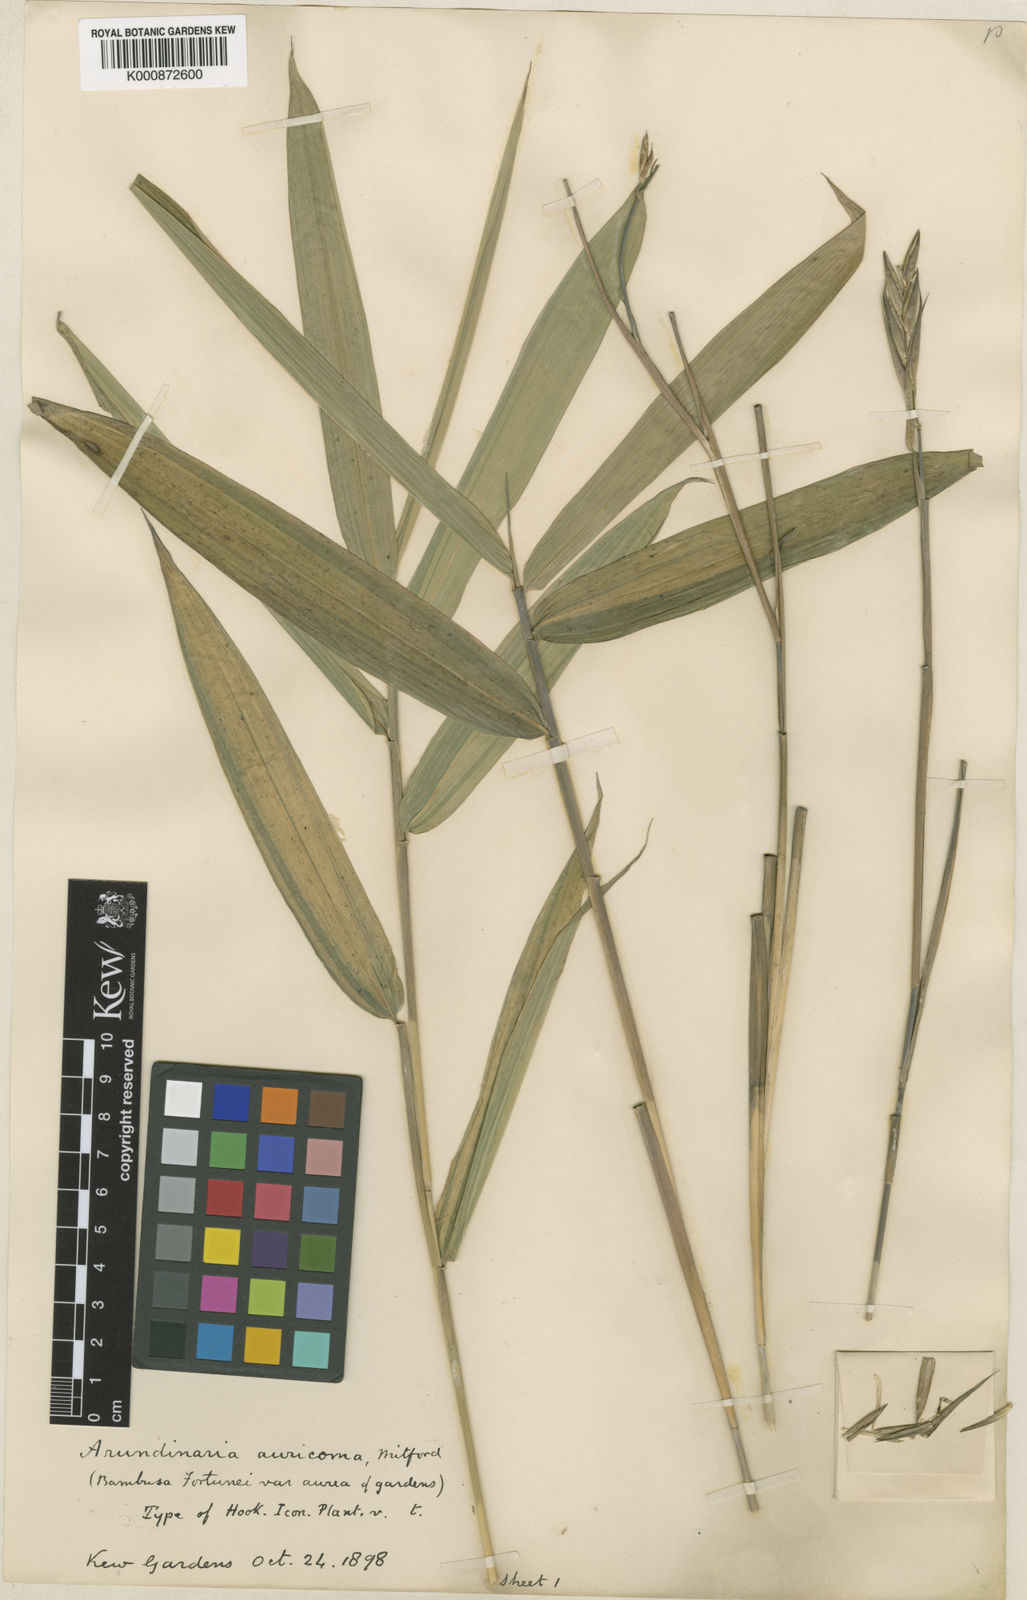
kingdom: Plantae
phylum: Tracheophyta
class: Liliopsida
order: Poales
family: Poaceae
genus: Pleioblastus
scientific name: Pleioblastus viridistriatus
